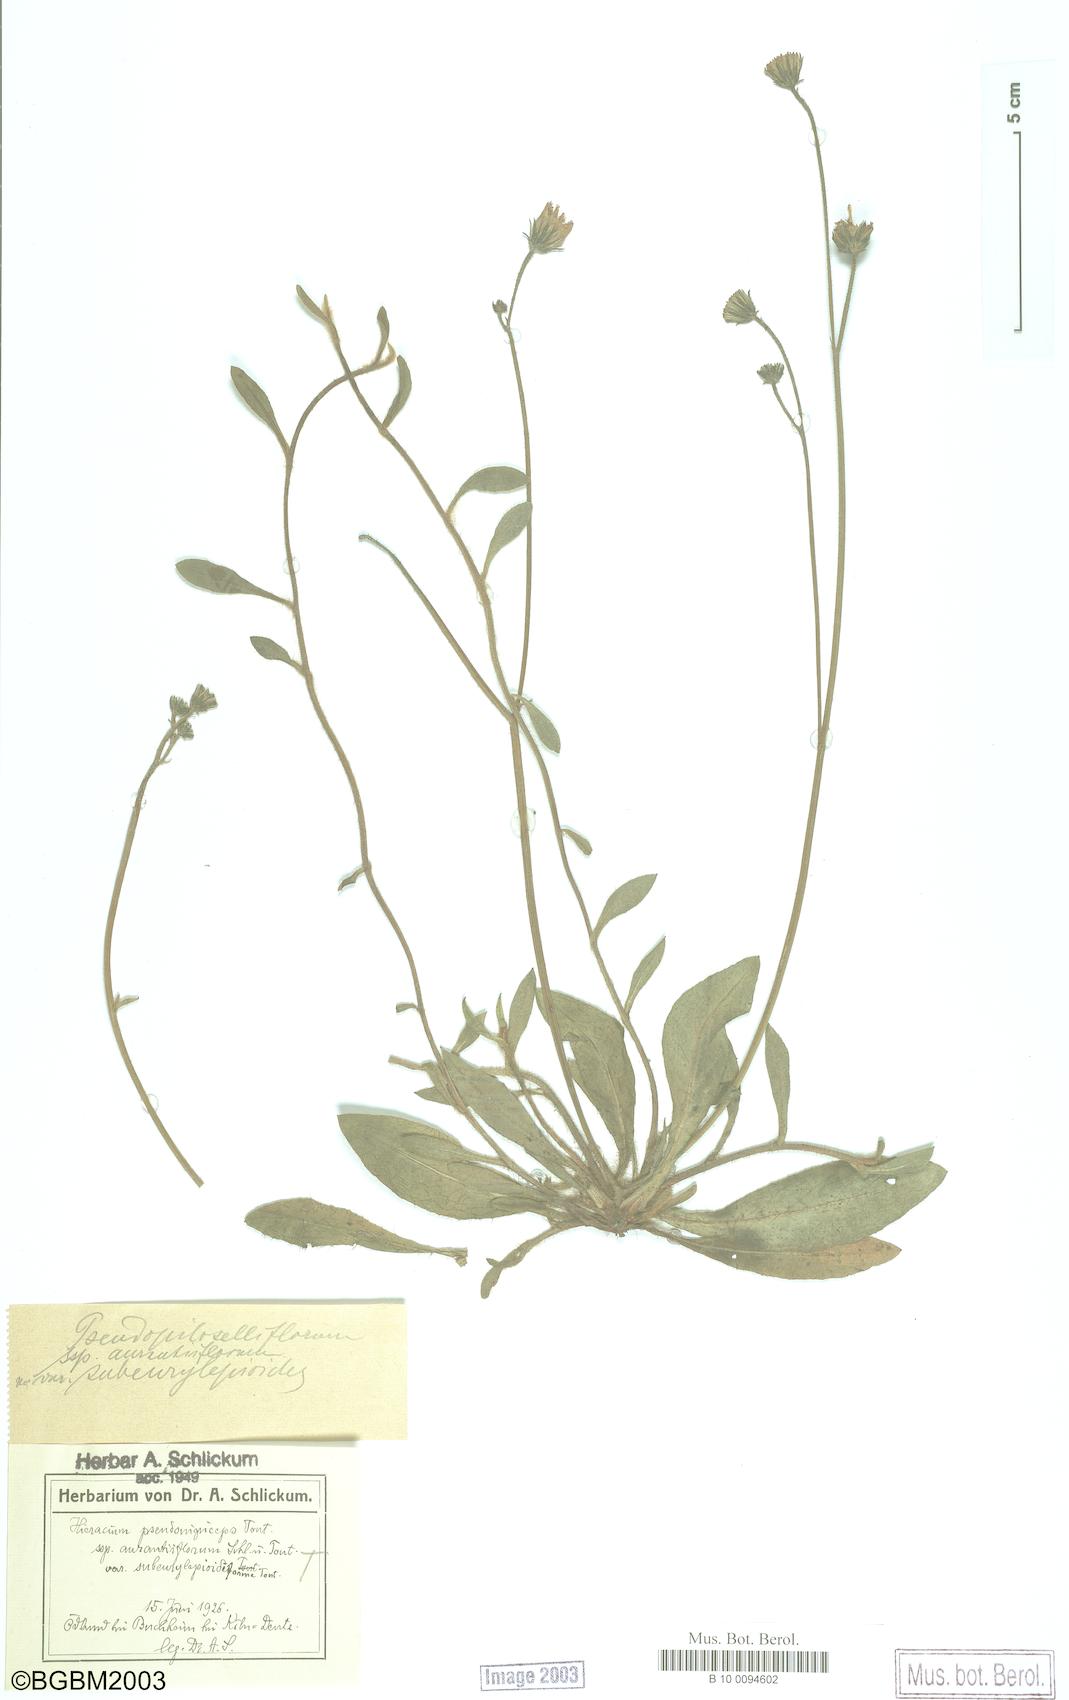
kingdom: Plantae
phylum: Tracheophyta
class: Magnoliopsida
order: Asterales
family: Asteraceae
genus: Hieracium
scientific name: Hieracium
